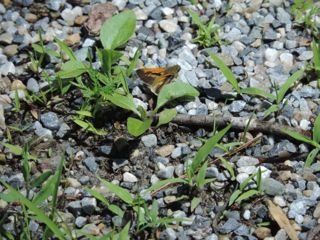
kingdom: Animalia
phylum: Arthropoda
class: Insecta
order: Lepidoptera
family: Hesperiidae
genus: Polites
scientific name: Polites themistocles
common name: Tawny-edged Skipper
